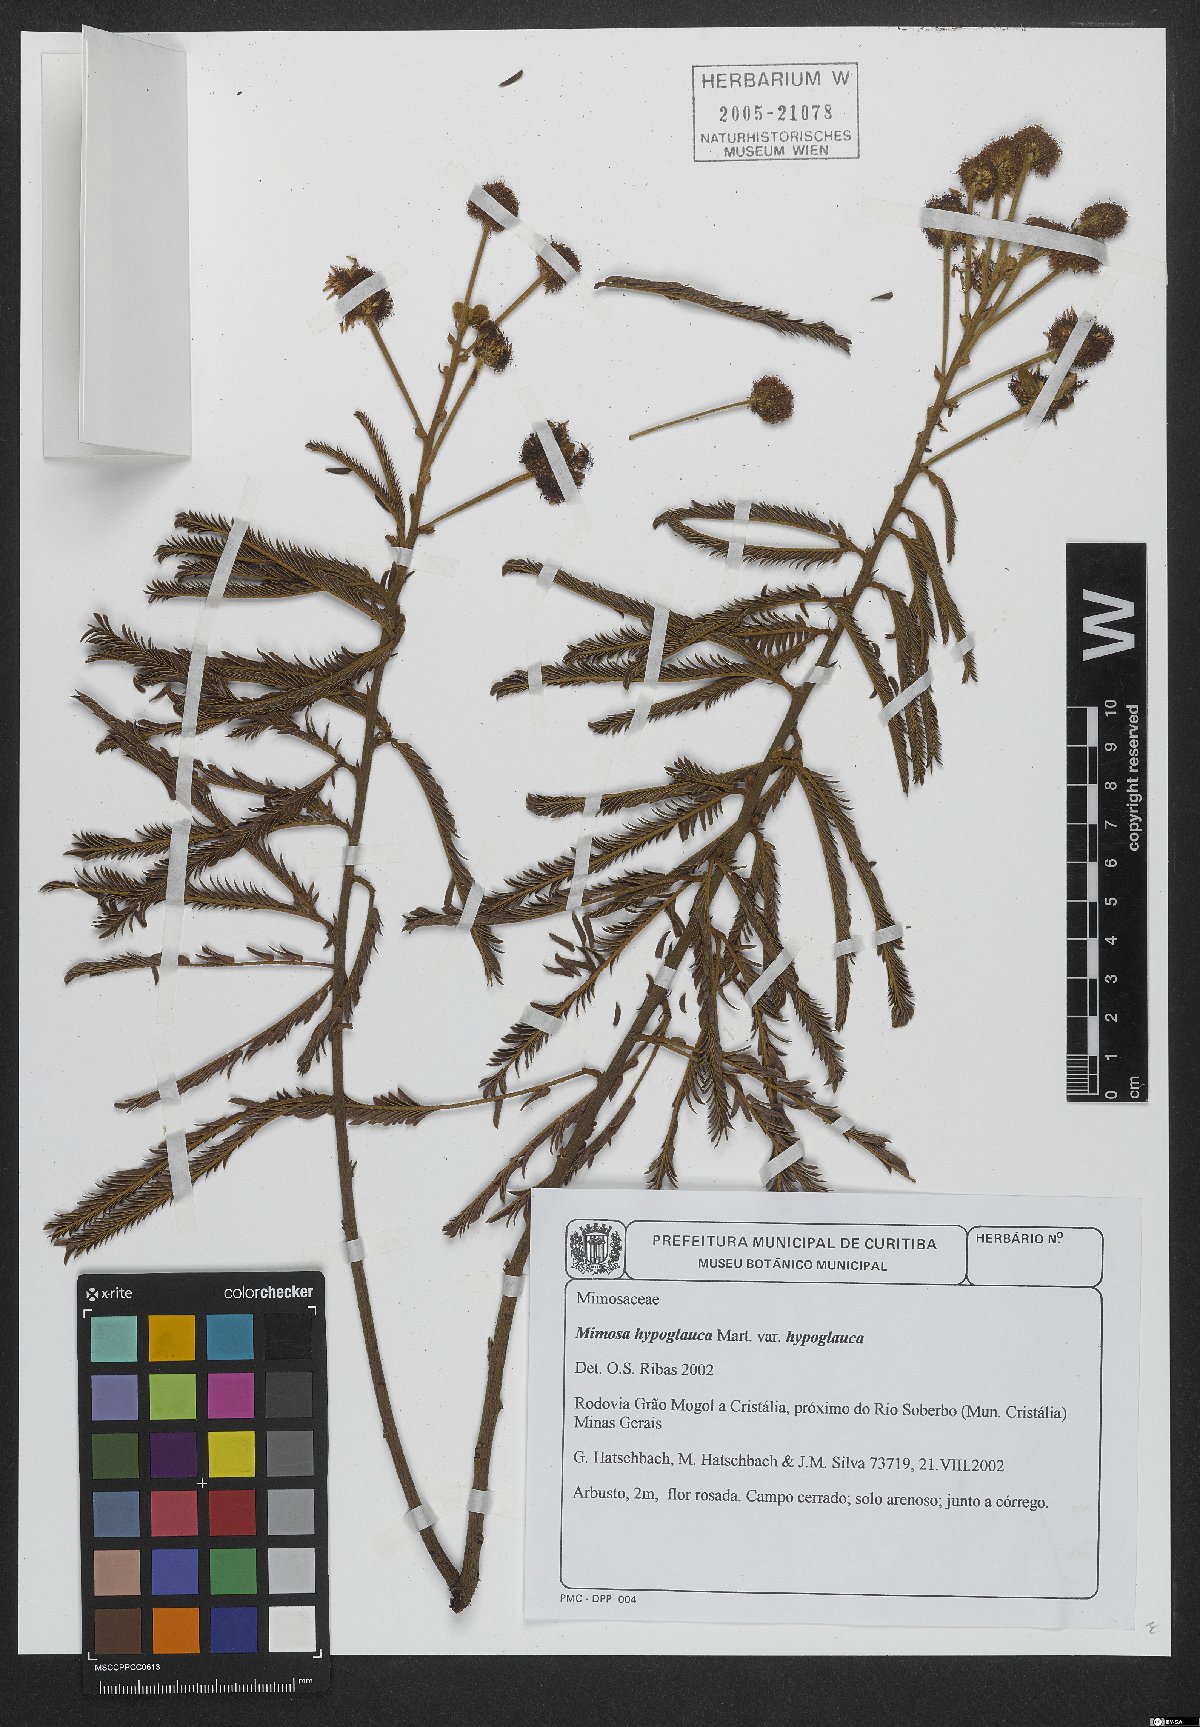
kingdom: Plantae
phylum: Tracheophyta
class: Magnoliopsida
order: Fabales
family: Fabaceae
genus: Mimosa
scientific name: Mimosa hypoglauca
